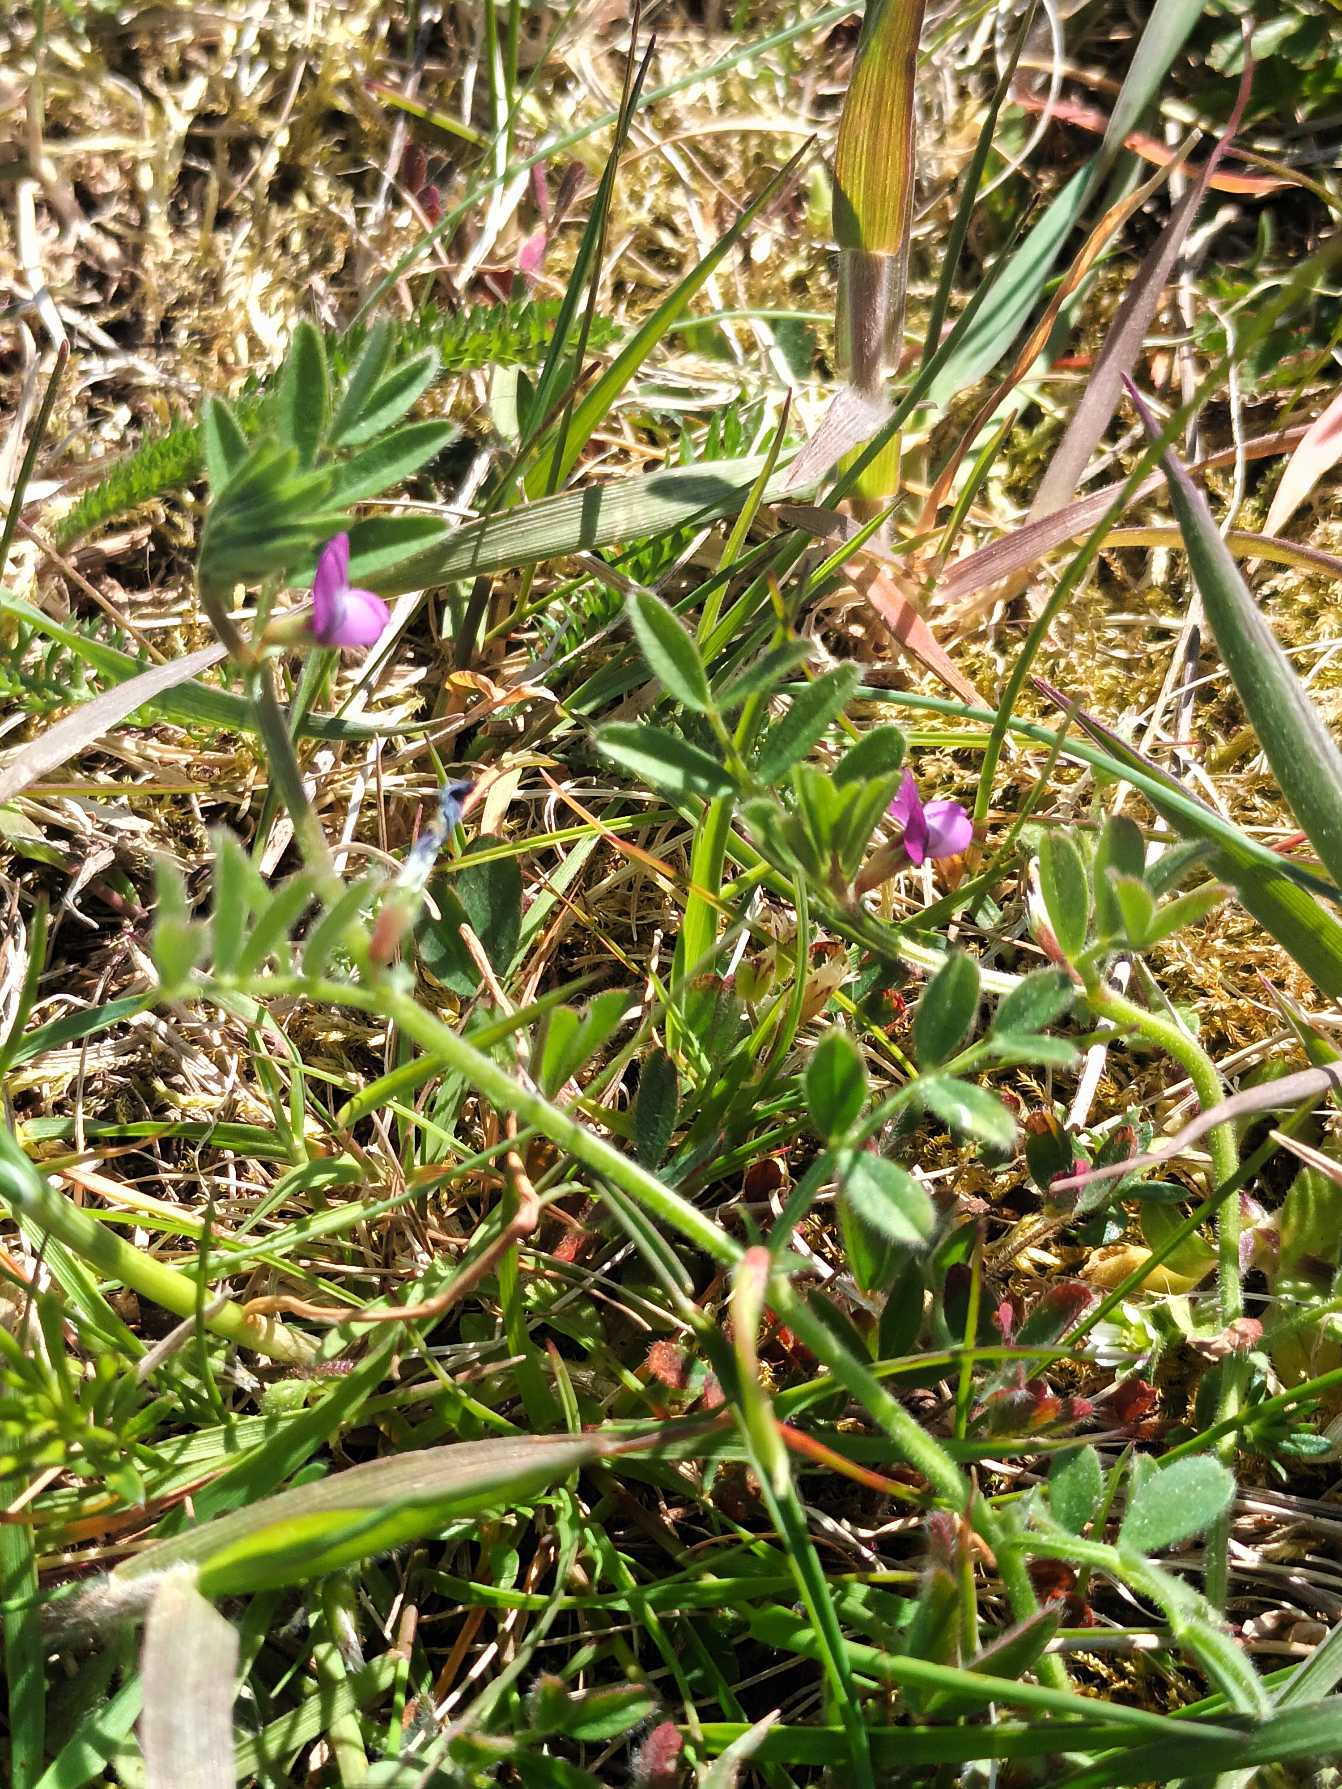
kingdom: Plantae
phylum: Tracheophyta
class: Magnoliopsida
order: Fabales
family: Fabaceae
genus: Vicia
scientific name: Vicia lathyroides
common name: Vår-vikke
